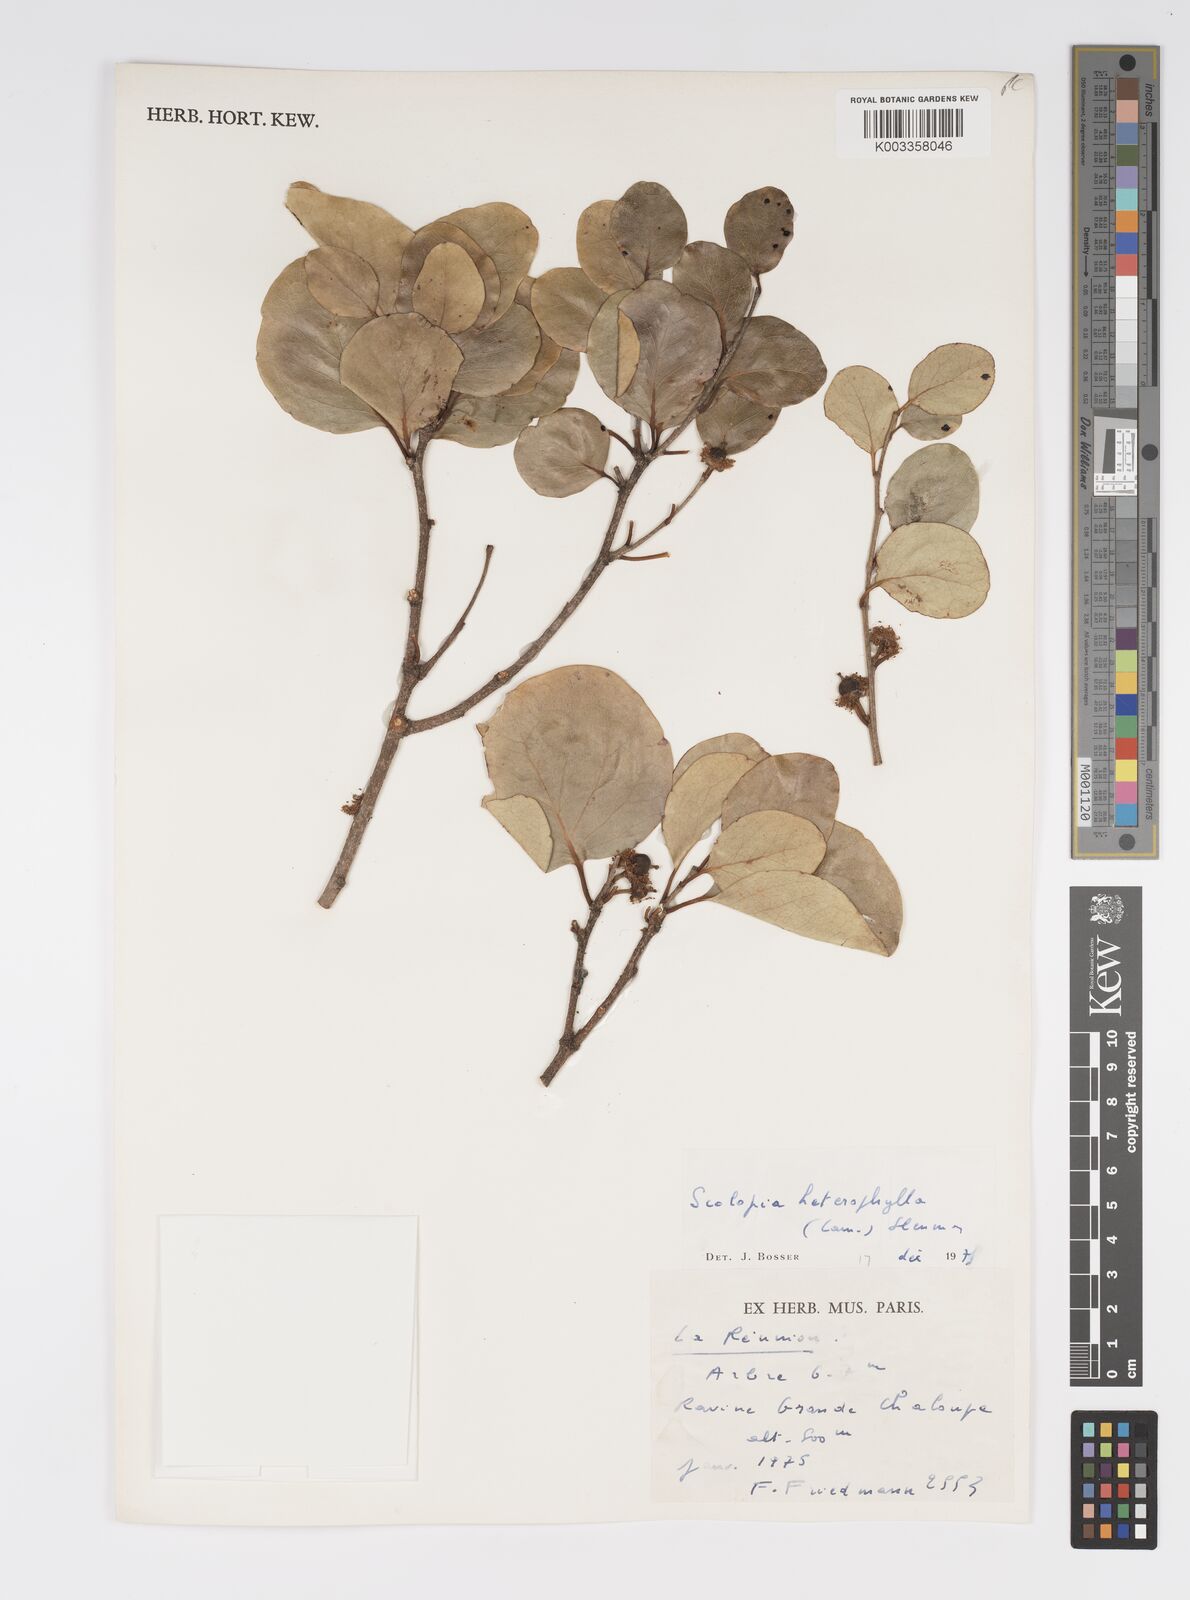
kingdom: Plantae
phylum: Tracheophyta
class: Magnoliopsida
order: Malpighiales
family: Salicaceae
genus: Scolopia
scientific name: Scolopia heterophylla
